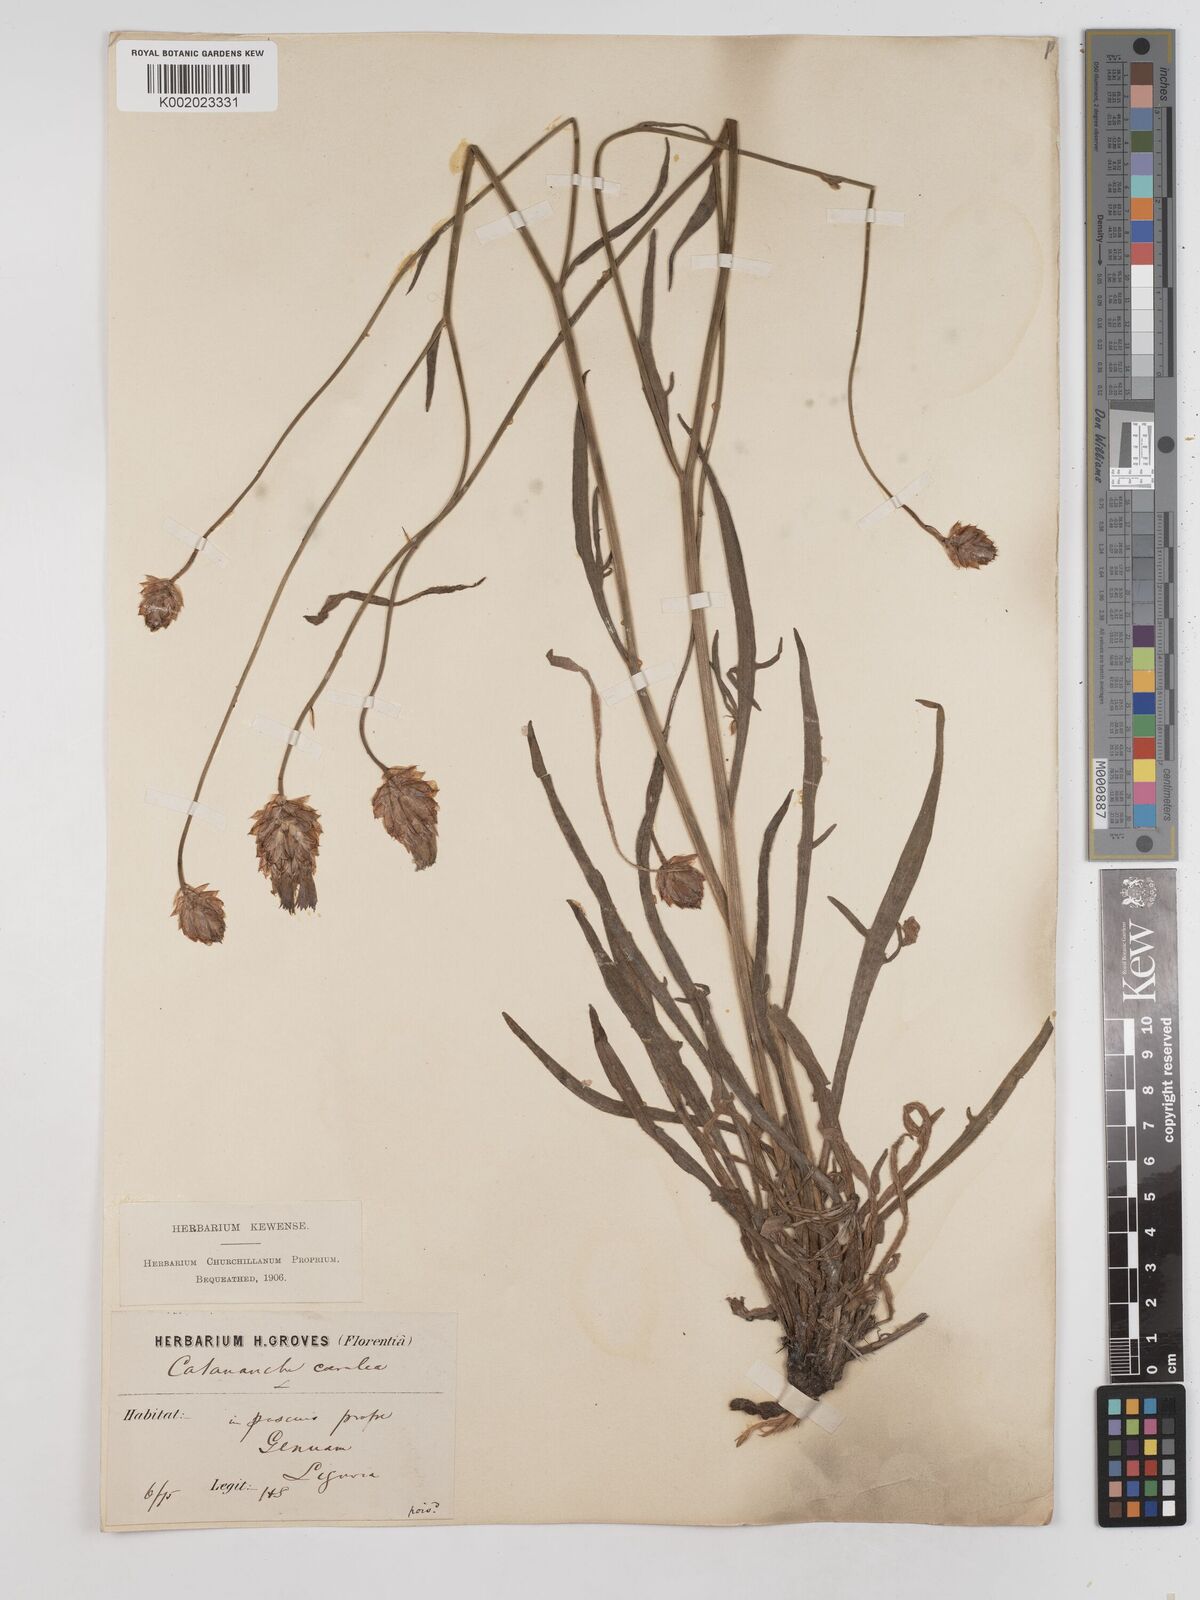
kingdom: Plantae
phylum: Tracheophyta
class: Magnoliopsida
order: Asterales
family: Asteraceae
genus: Catananche
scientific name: Catananche caerulea
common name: Blue cupidone
